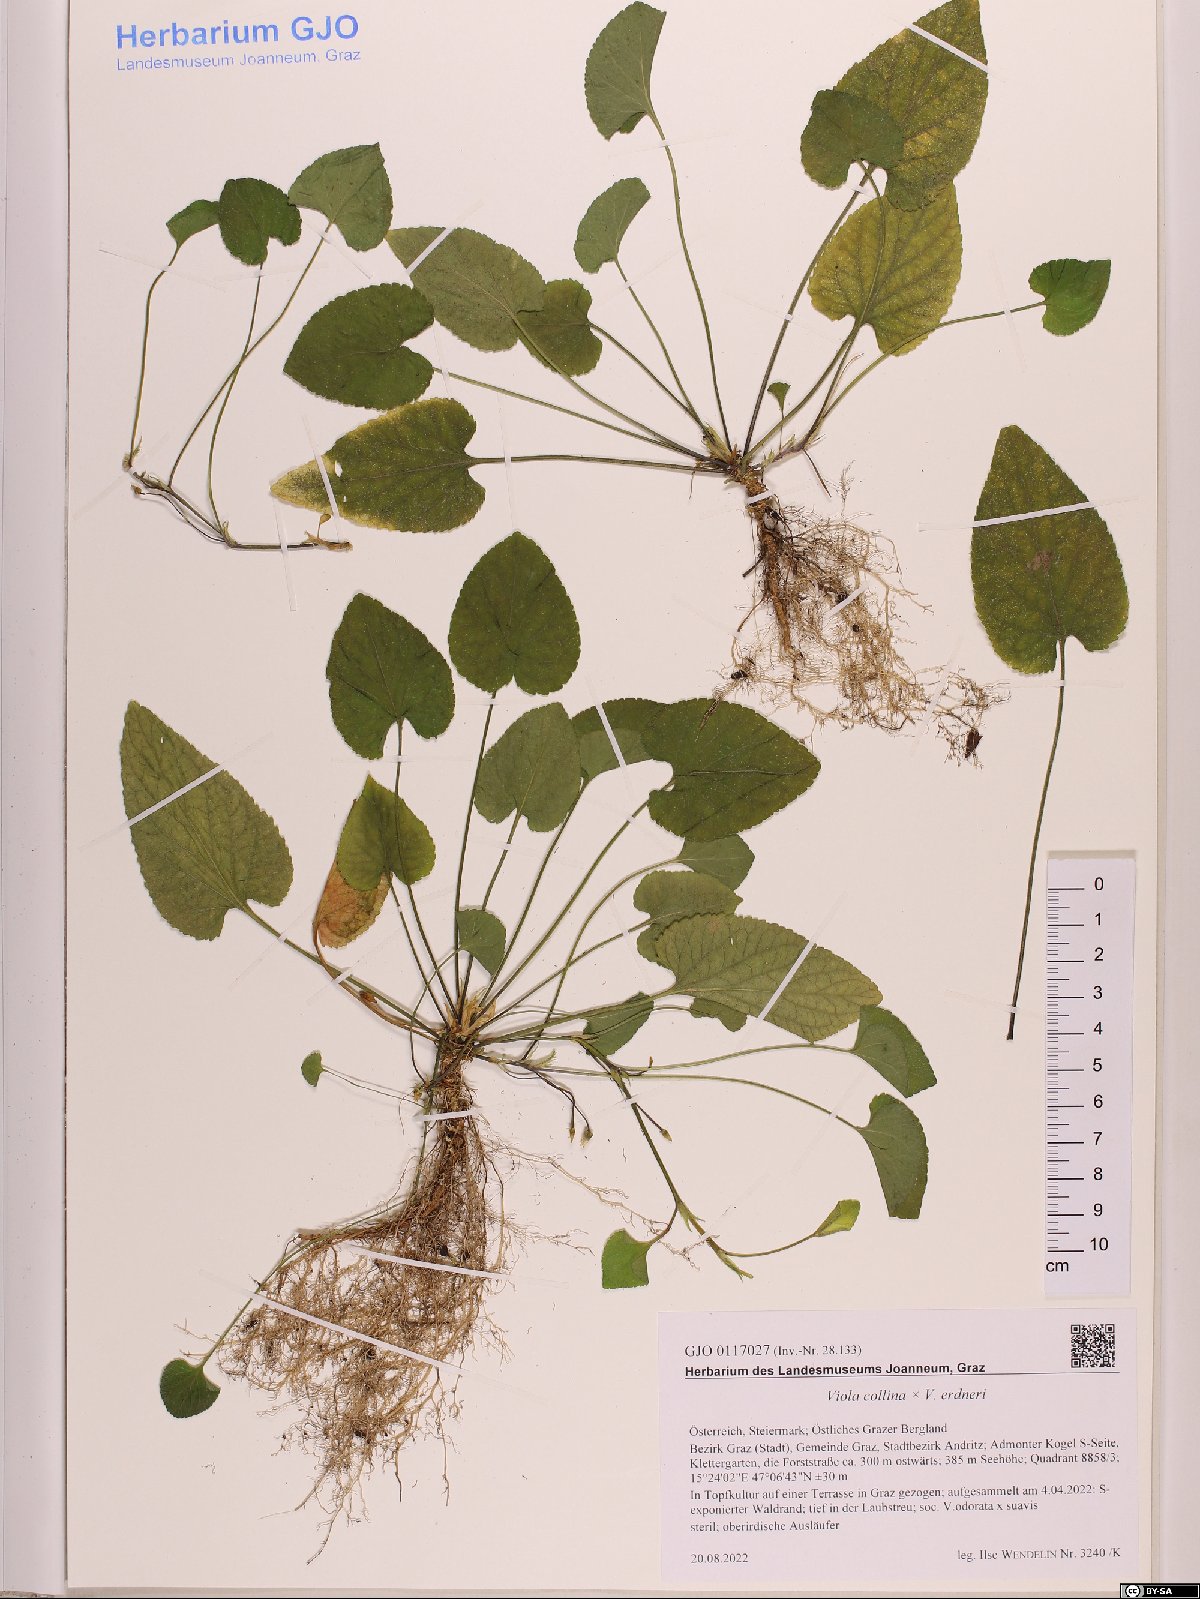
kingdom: Plantae
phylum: Tracheophyta
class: Magnoliopsida
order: Malpighiales
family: Violaceae
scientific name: Violaceae
